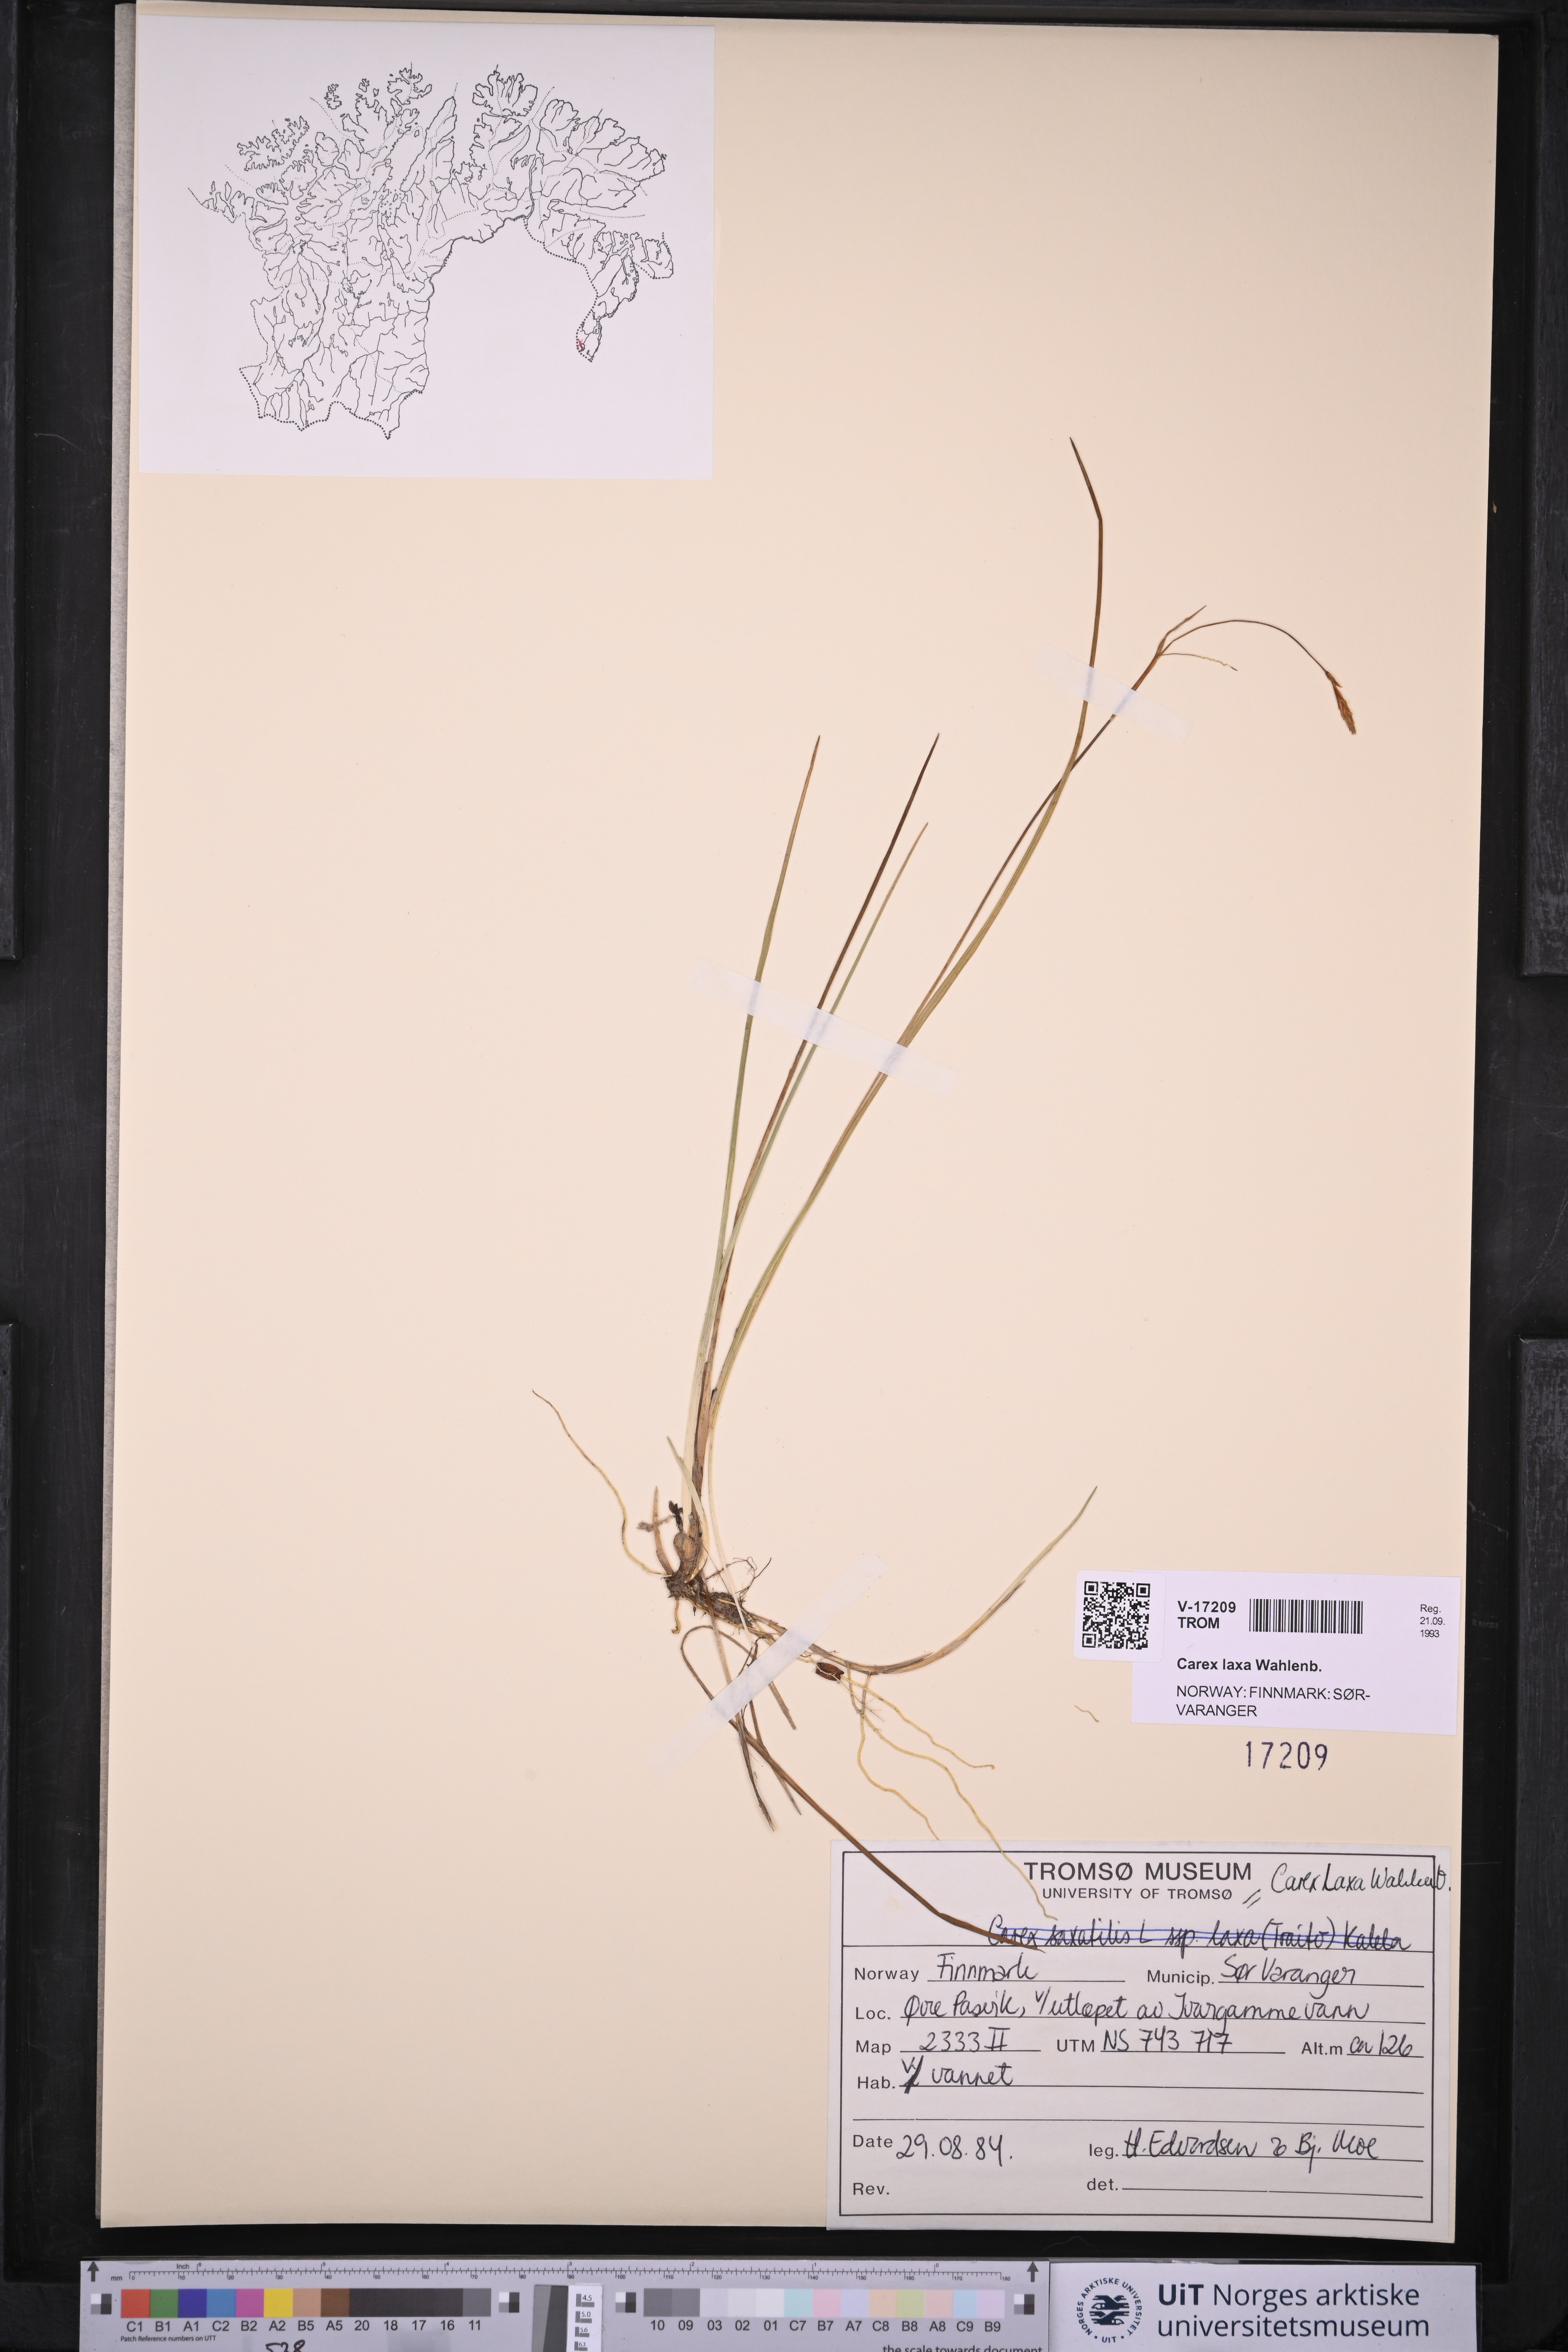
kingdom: Plantae
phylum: Tracheophyta
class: Liliopsida
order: Poales
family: Cyperaceae
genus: Carex
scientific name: Carex laxa
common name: Weak sedge
